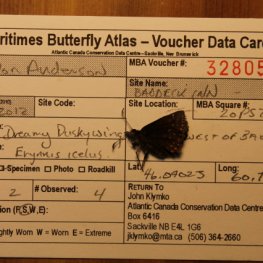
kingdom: Animalia
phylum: Arthropoda
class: Insecta
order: Lepidoptera
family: Hesperiidae
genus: Erynnis
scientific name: Erynnis icelus
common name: Dreamy Duskywing
